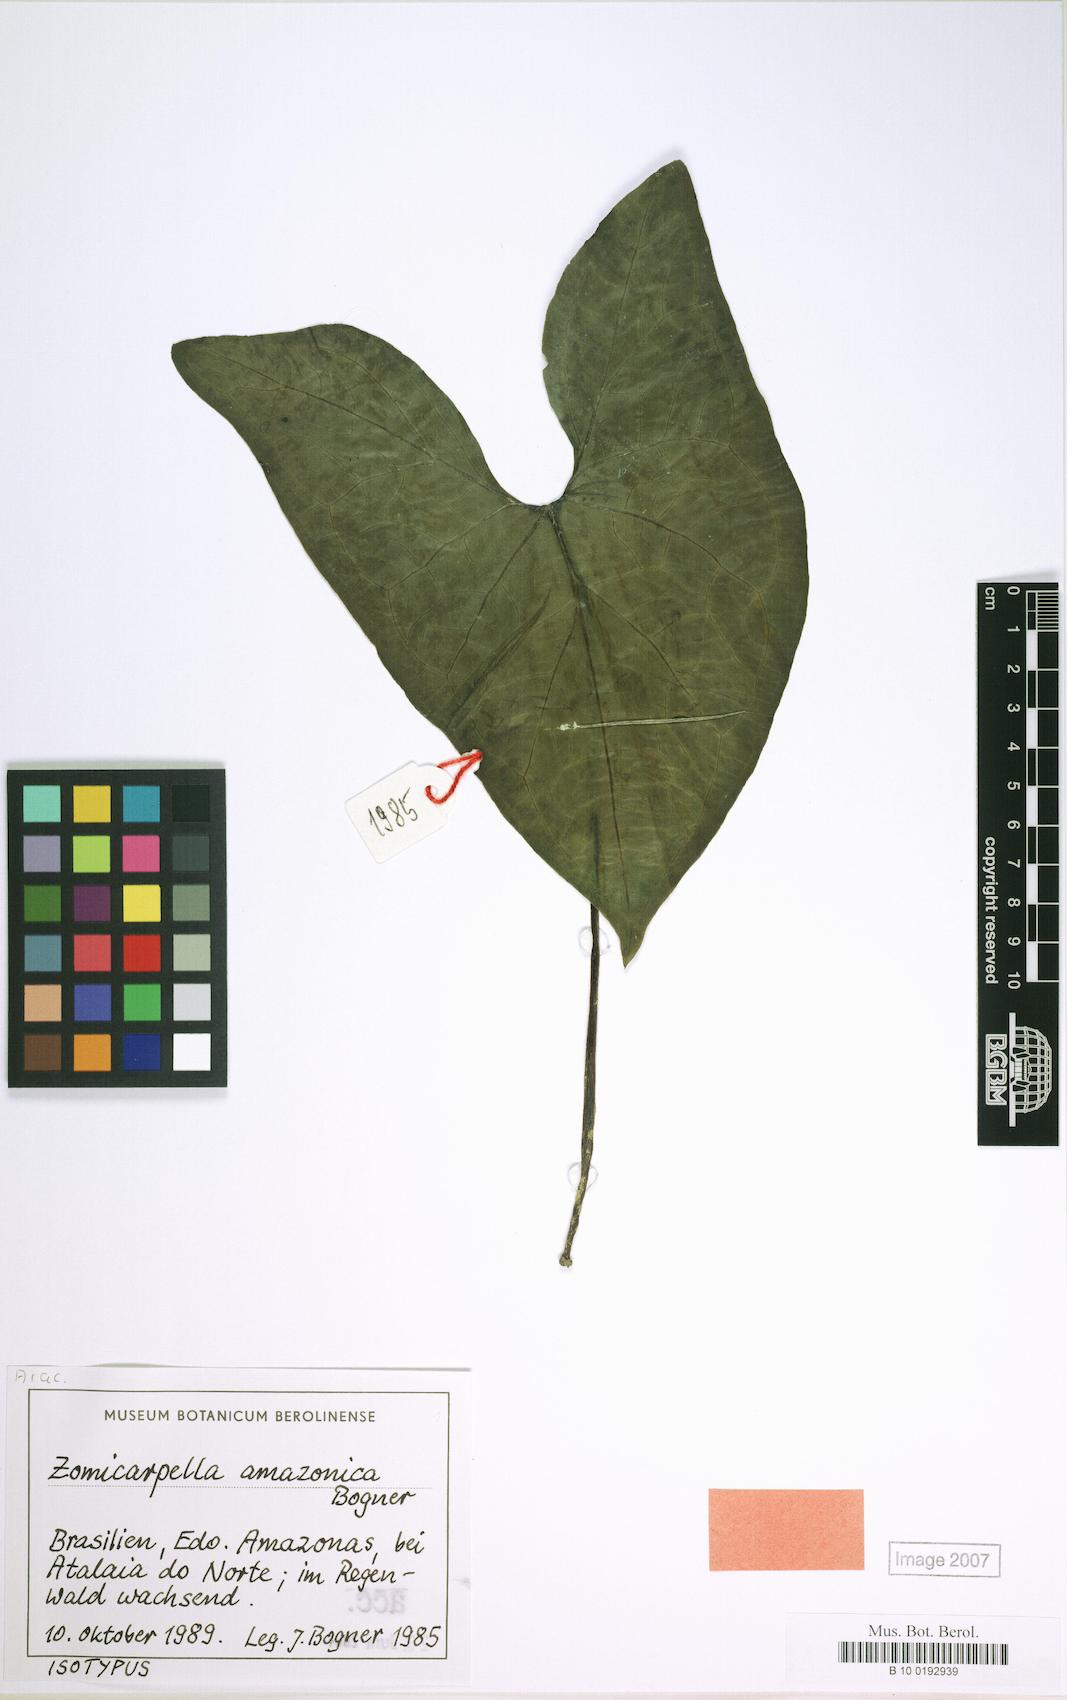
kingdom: Plantae
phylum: Tracheophyta
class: Liliopsida
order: Alismatales
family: Araceae
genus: Zomicarpella
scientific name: Zomicarpella amazonica
